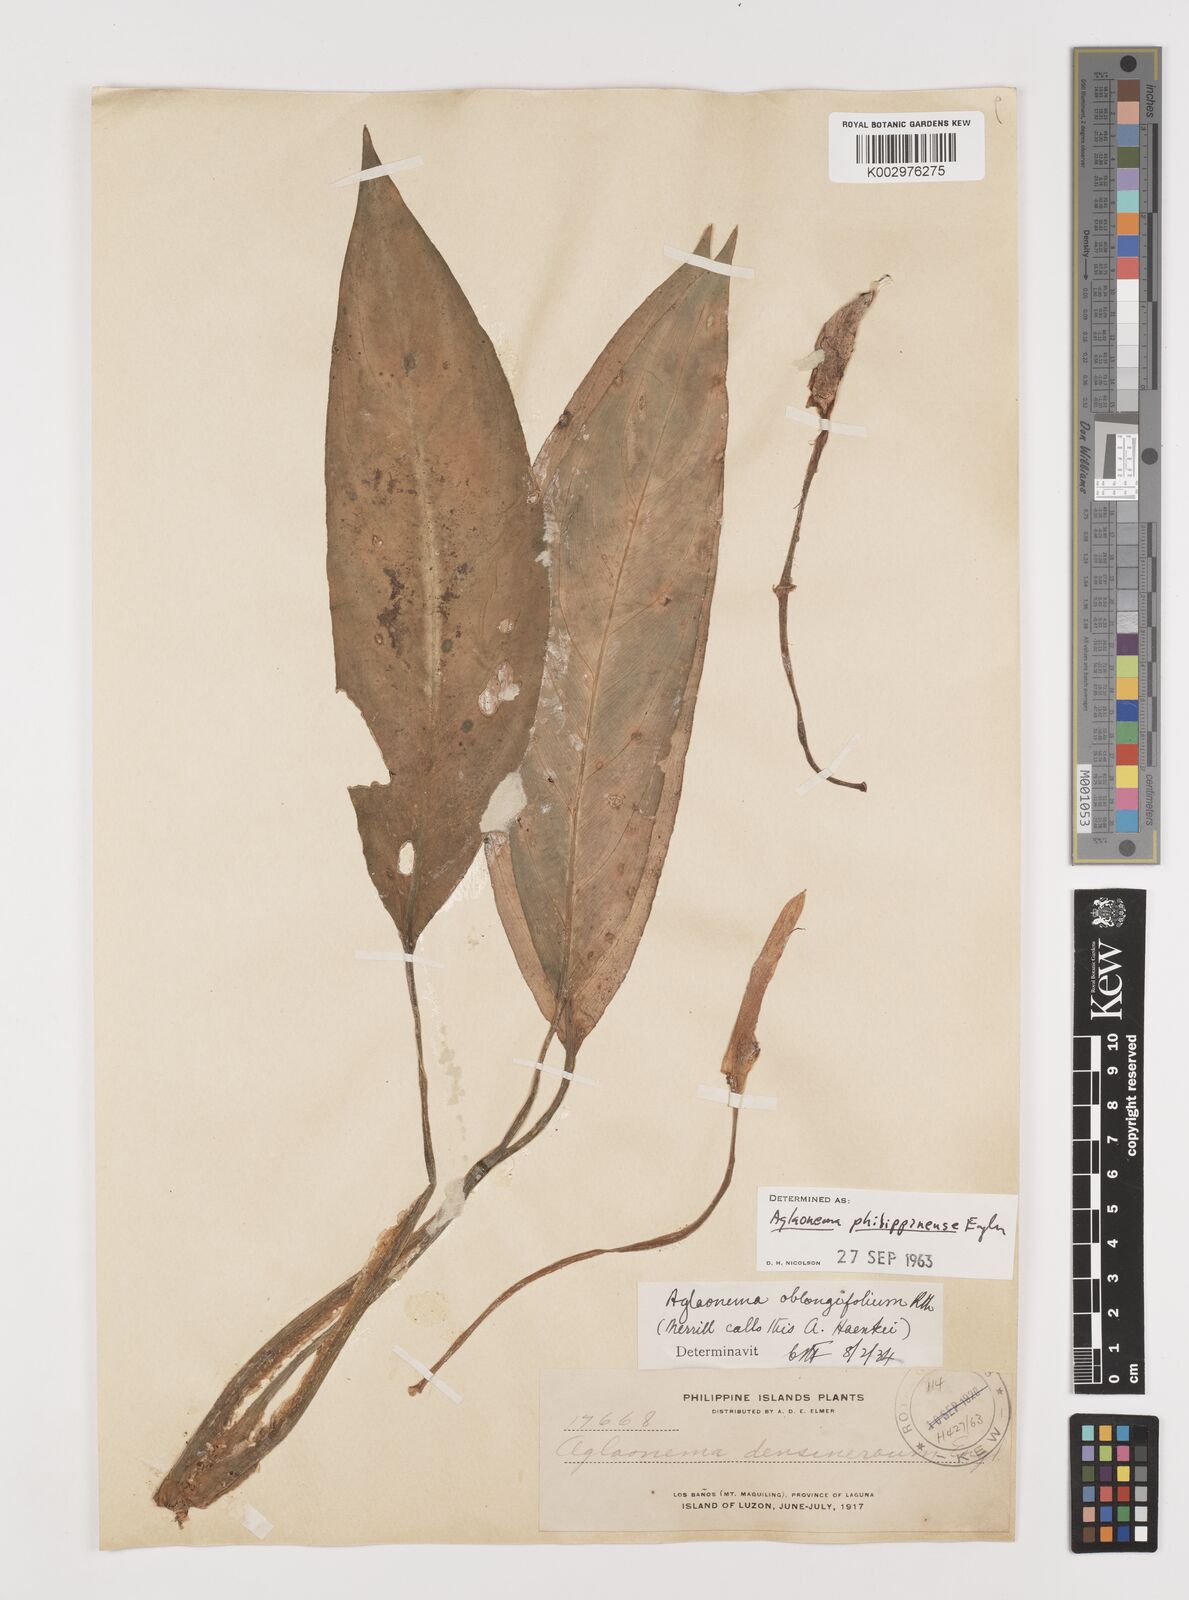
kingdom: Plantae
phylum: Tracheophyta
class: Liliopsida
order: Alismatales
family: Araceae
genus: Aglaonema
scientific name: Aglaonema philippinense
